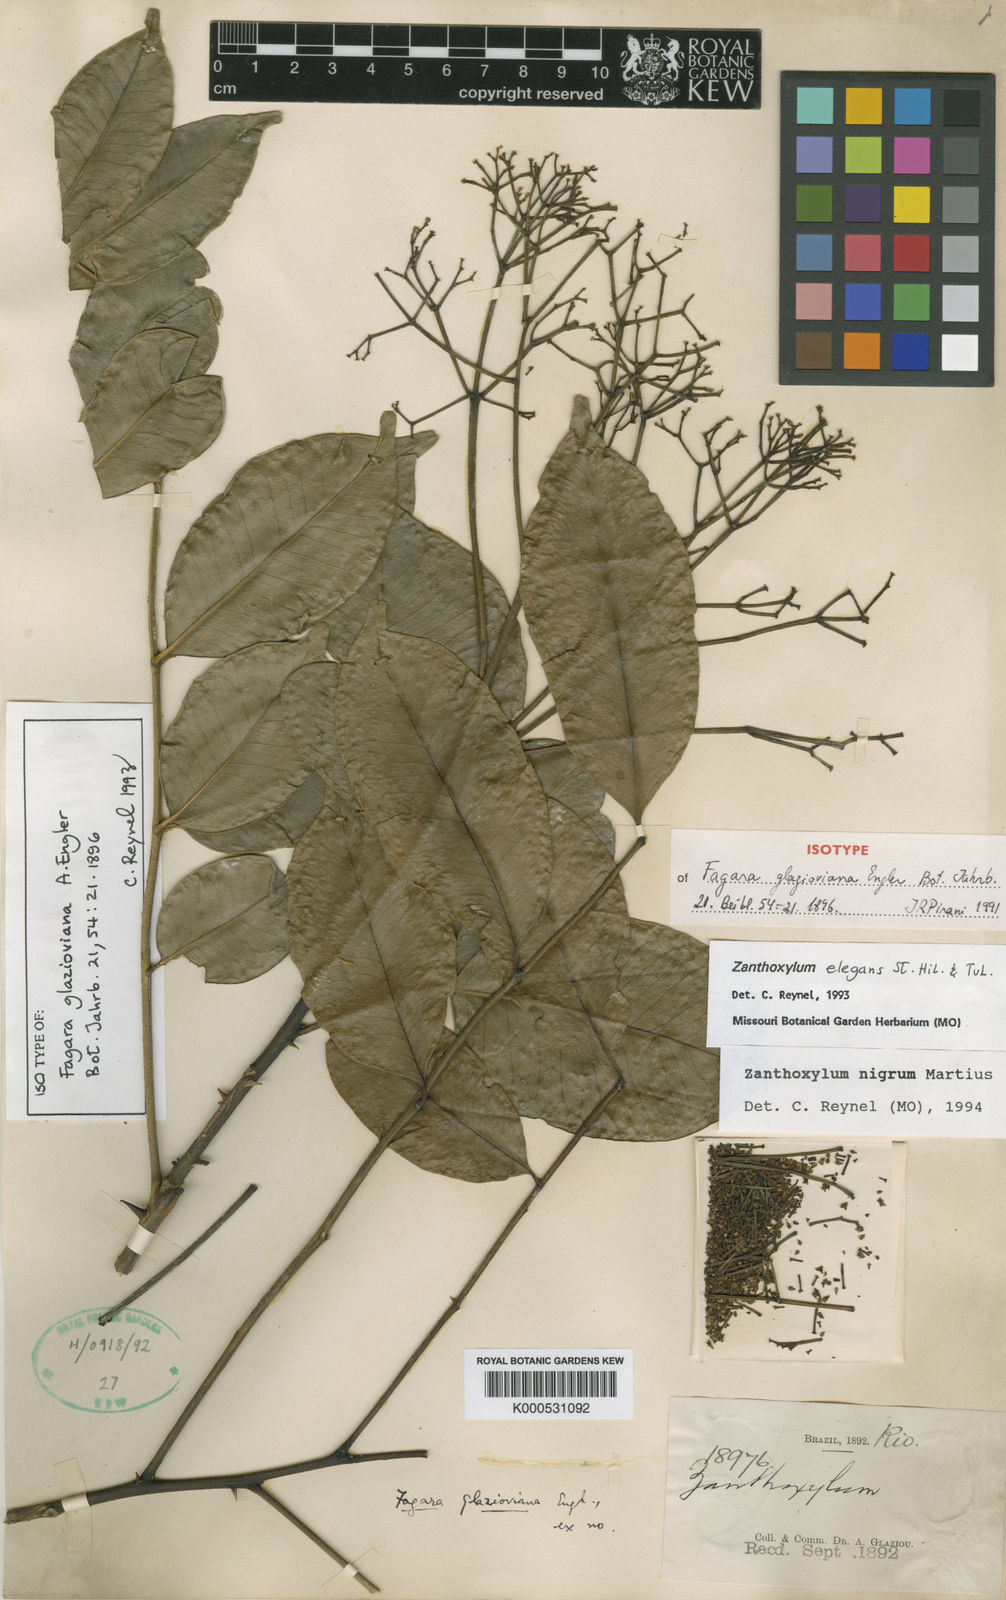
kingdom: Plantae
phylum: Tracheophyta
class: Magnoliopsida
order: Sapindales
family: Rutaceae
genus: Zanthoxylum
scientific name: Zanthoxylum nigrum
